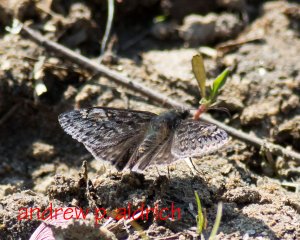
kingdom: Animalia
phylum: Arthropoda
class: Insecta
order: Lepidoptera
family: Hesperiidae
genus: Gesta
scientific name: Gesta
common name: Juvenal's Duskywing
